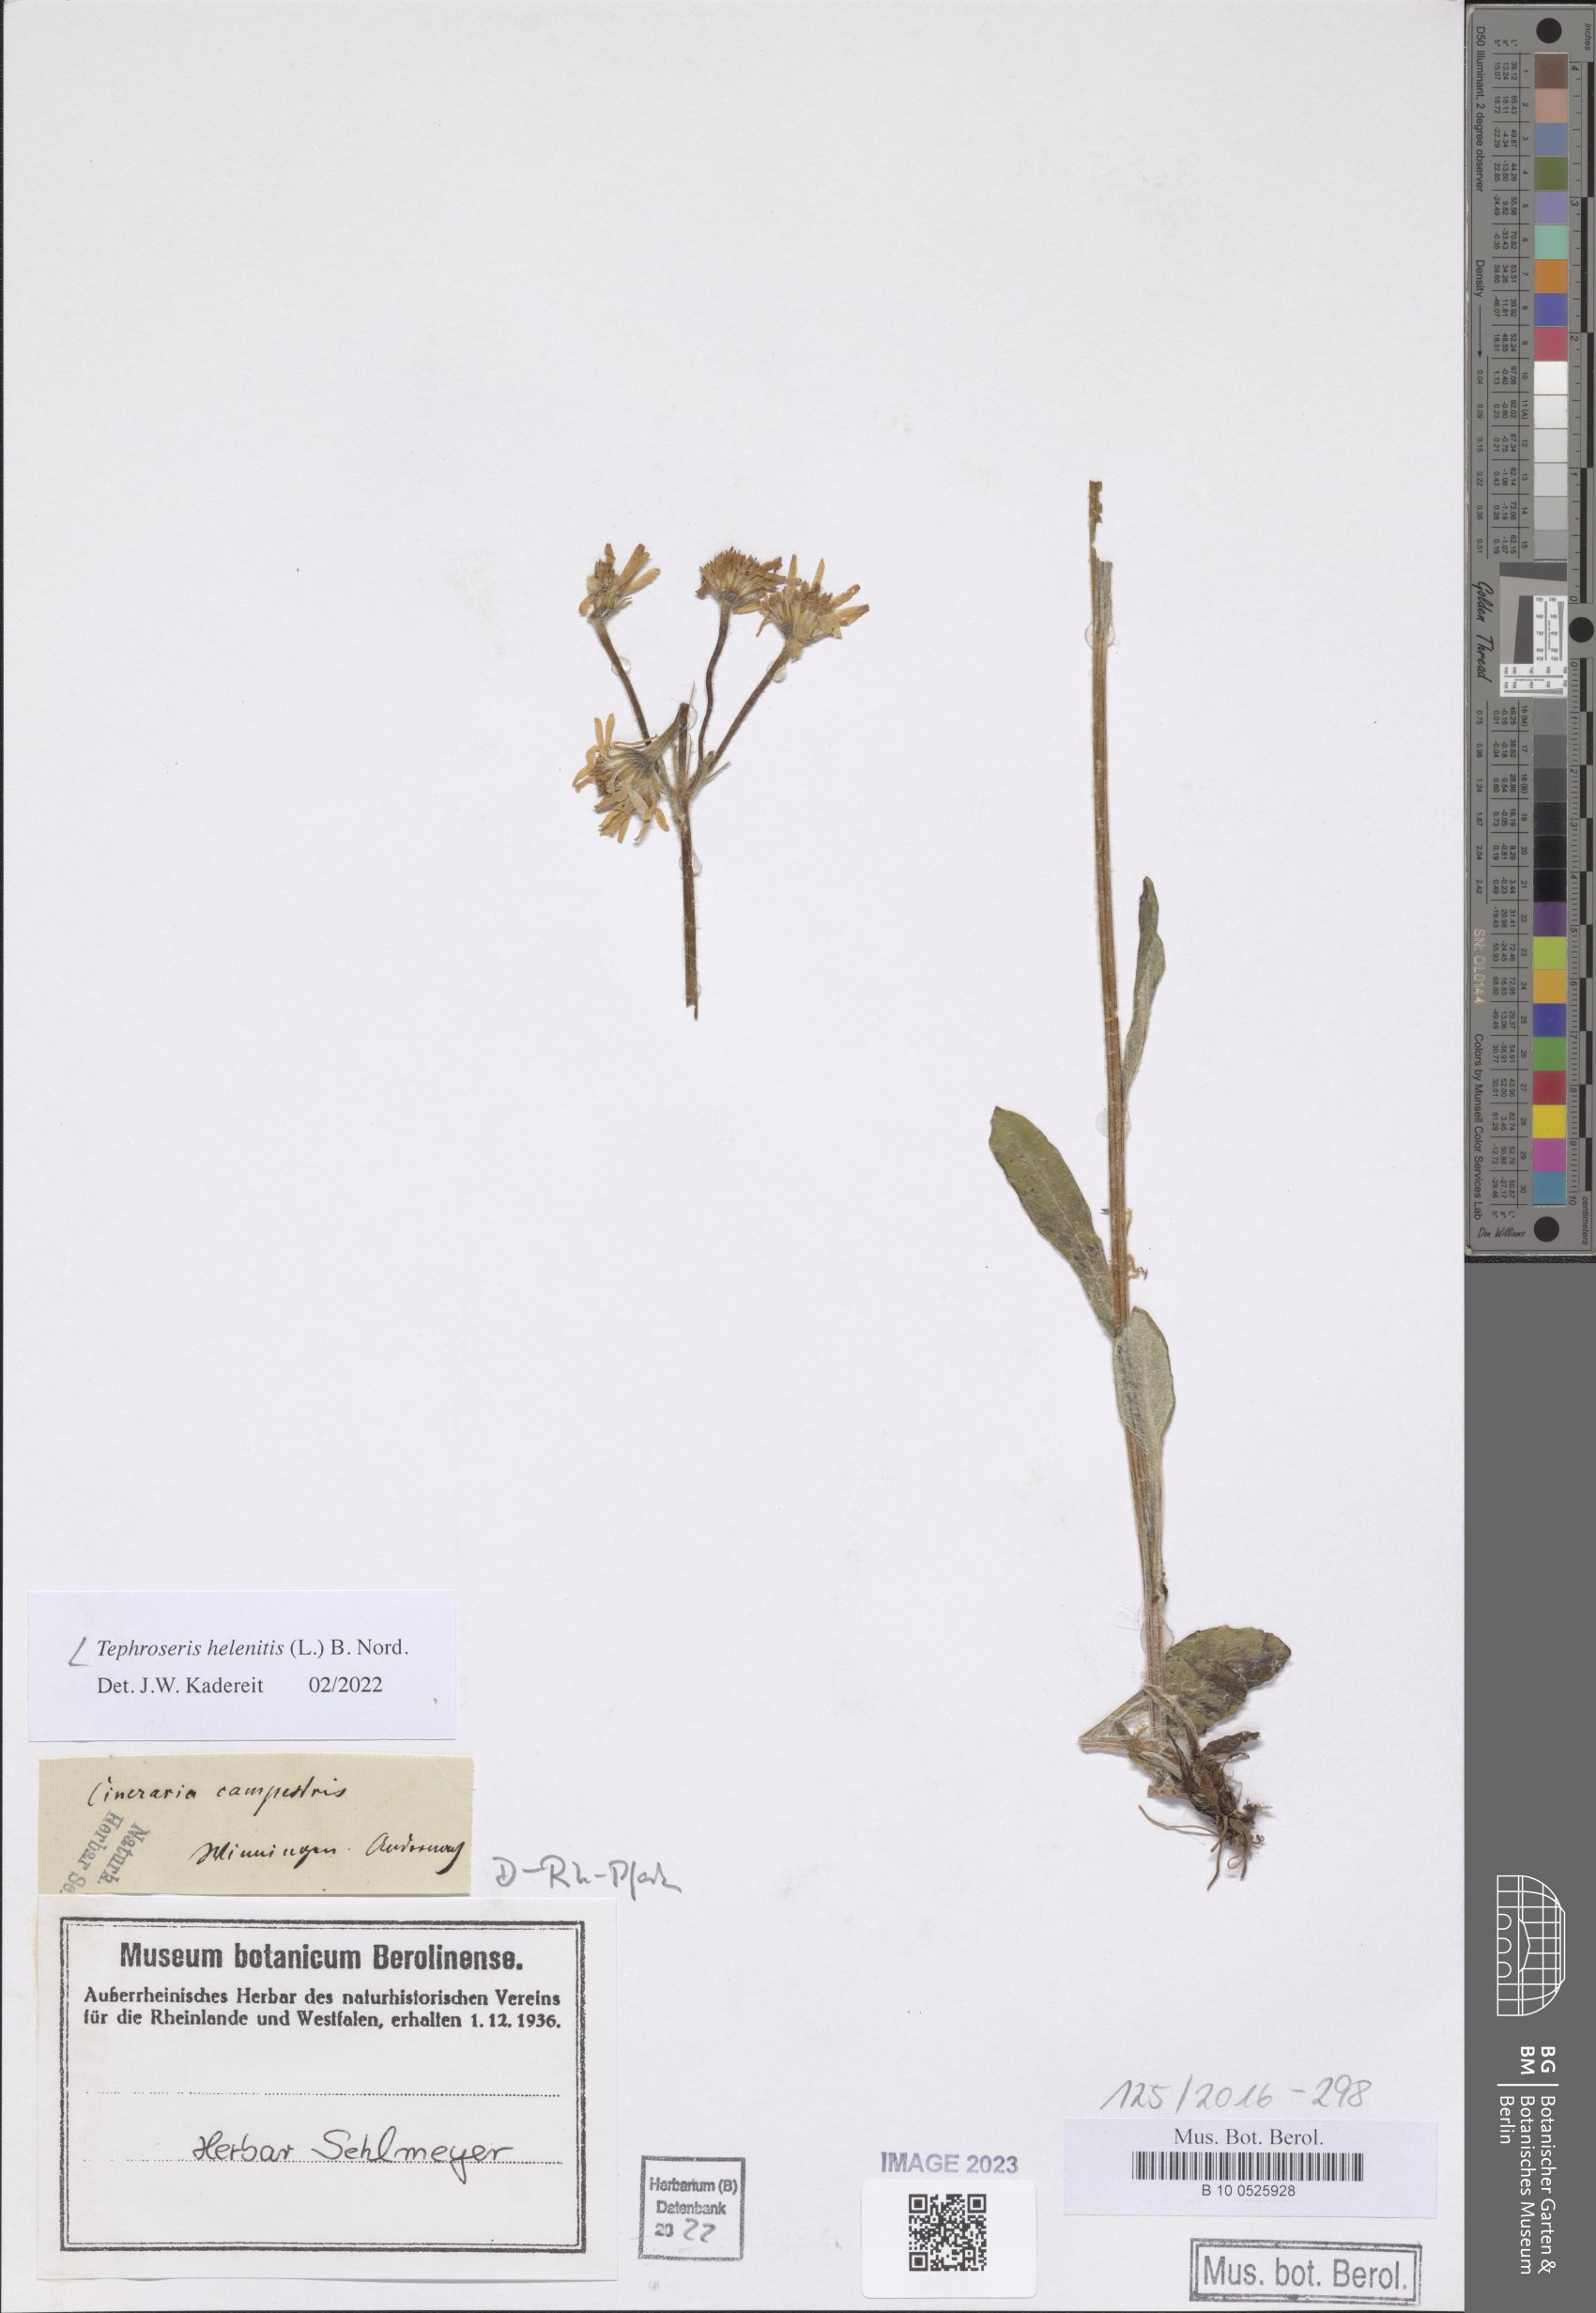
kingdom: Plantae
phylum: Tracheophyta
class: Magnoliopsida
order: Asterales
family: Asteraceae
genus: Tephroseris
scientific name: Tephroseris helenitis
